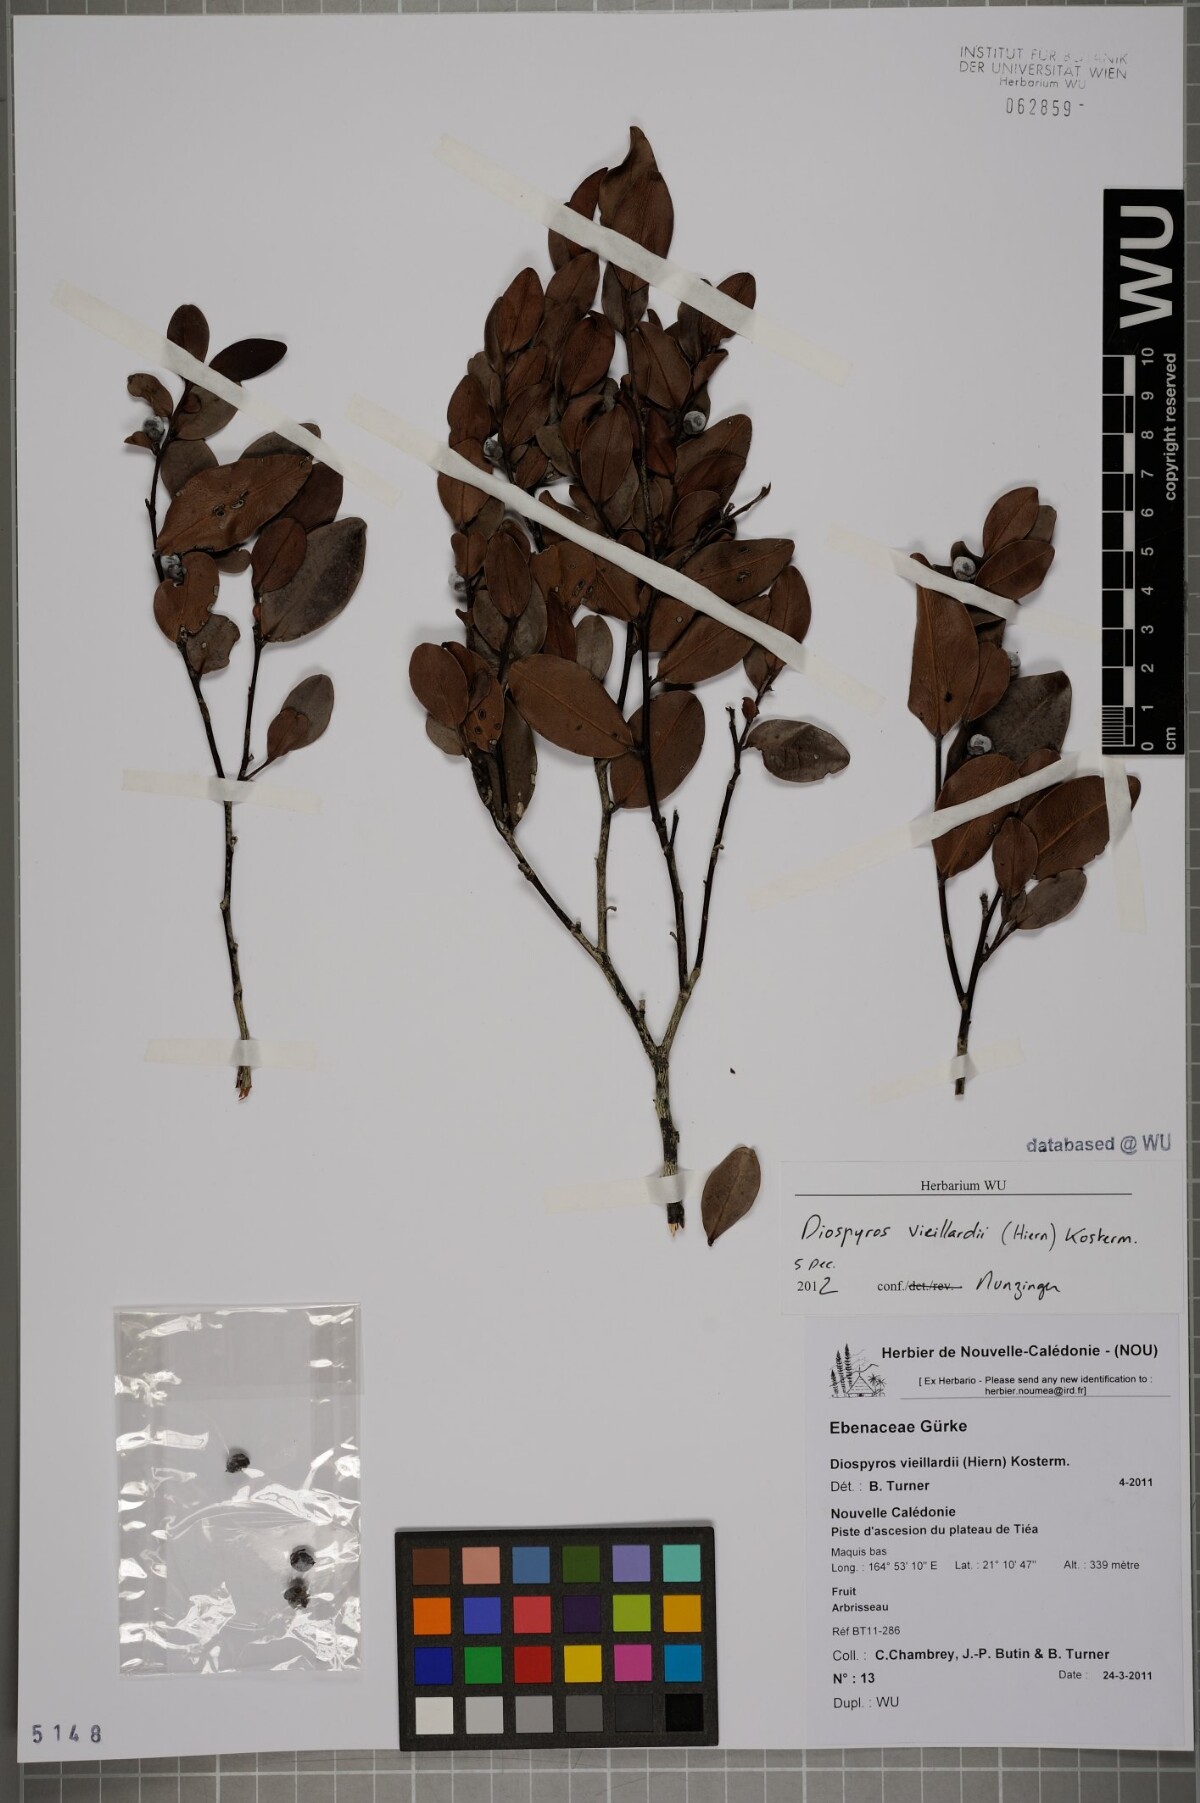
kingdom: Plantae
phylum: Tracheophyta
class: Magnoliopsida
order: Ericales
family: Ebenaceae
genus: Diospyros
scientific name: Diospyros vieillardii
